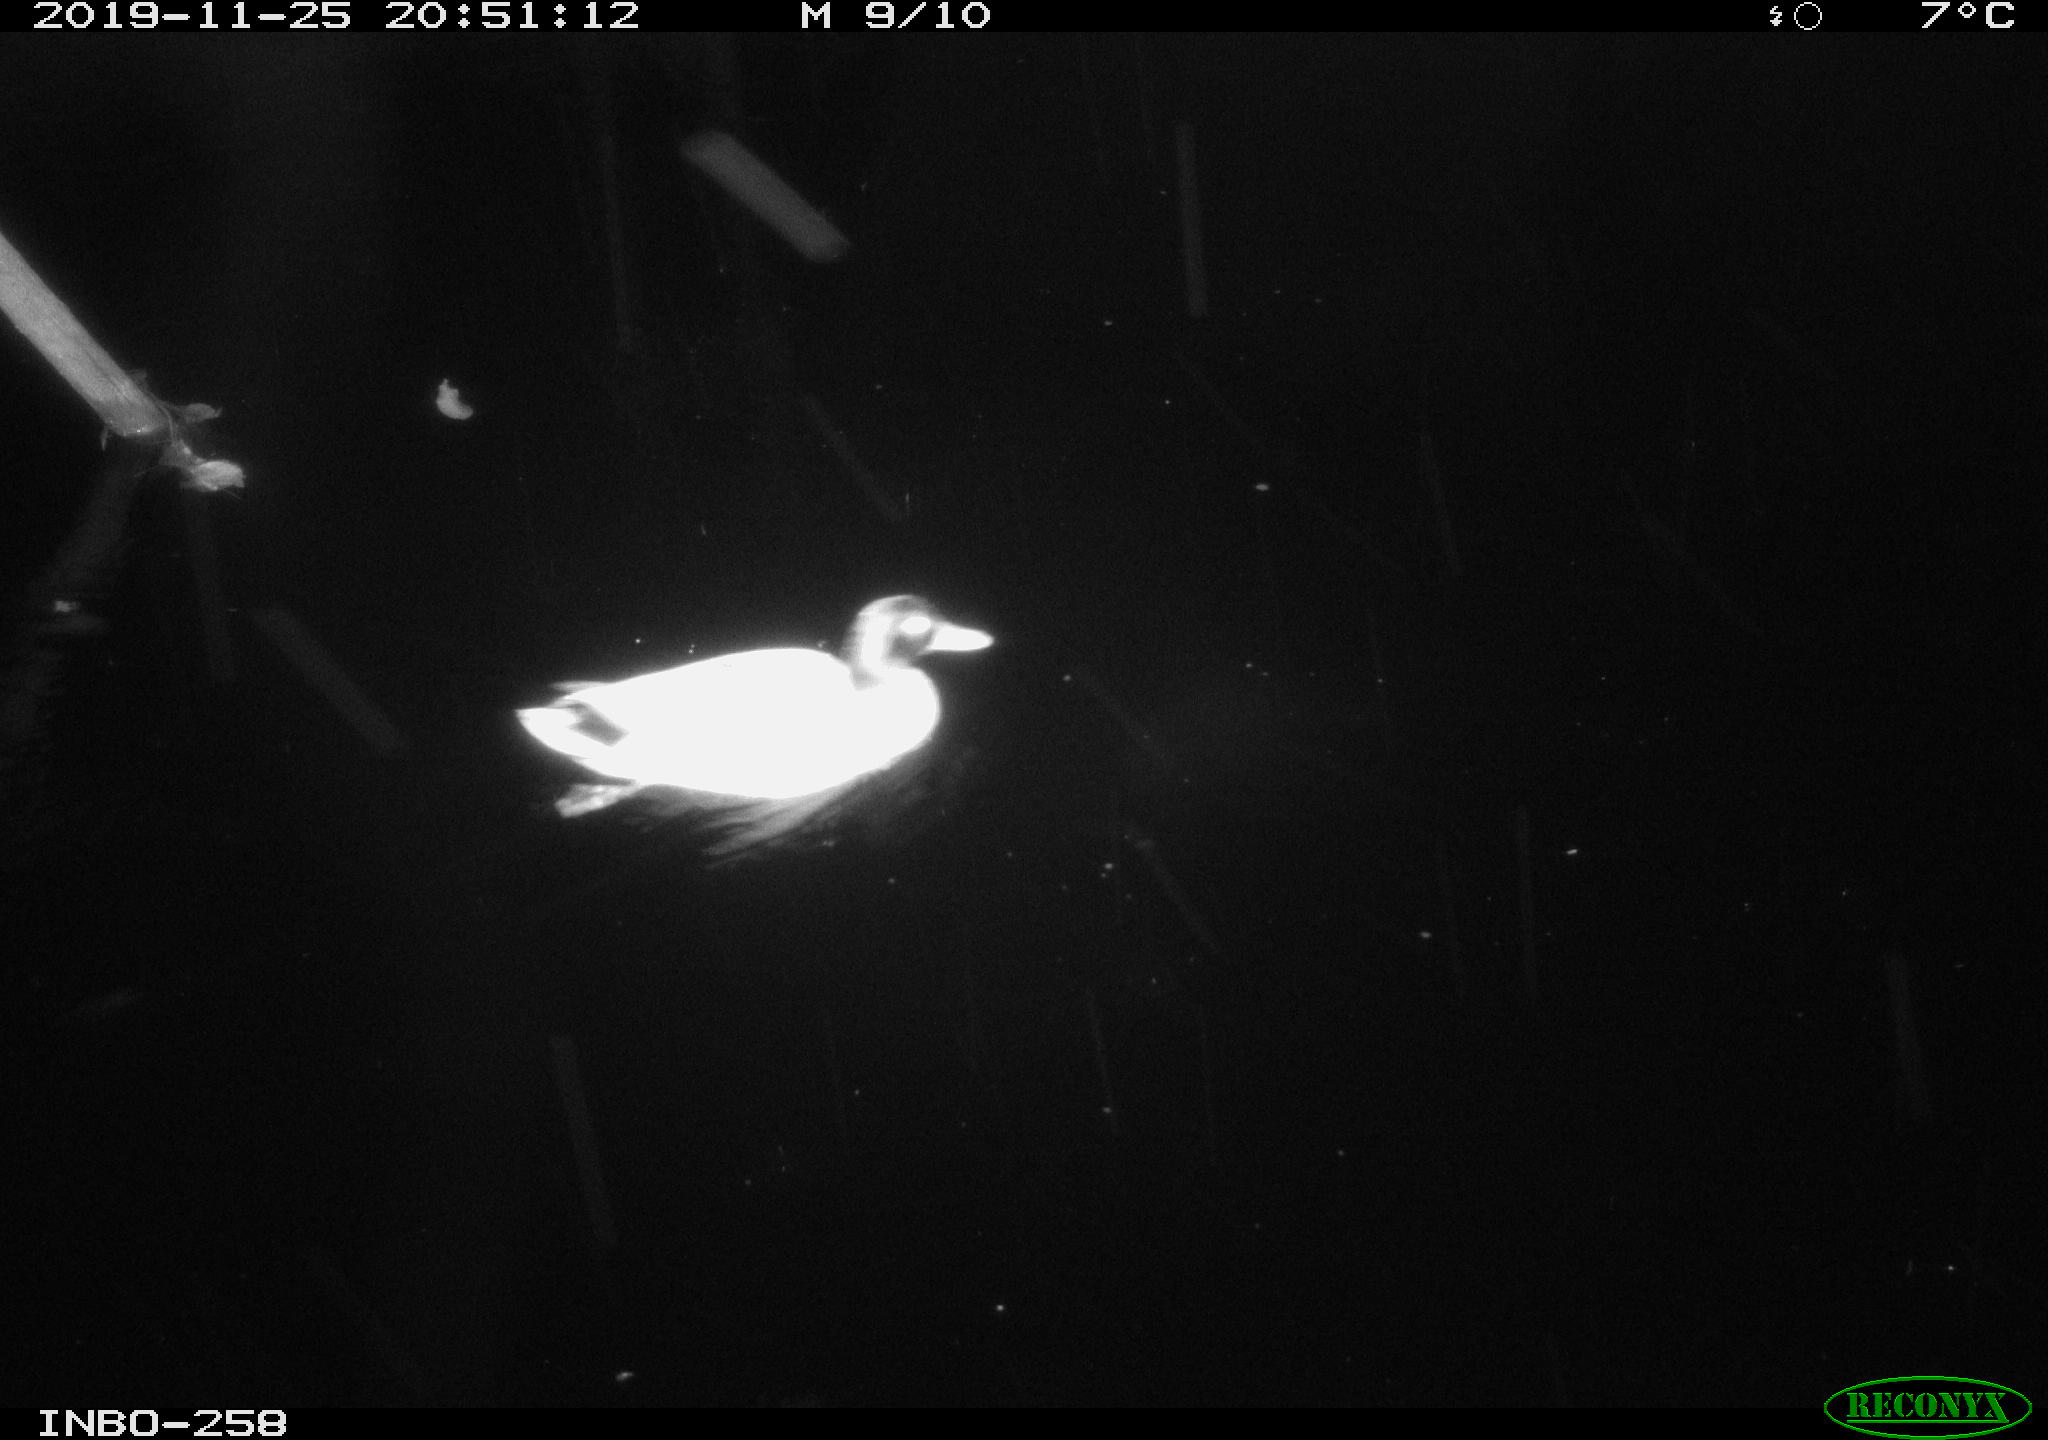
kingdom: Animalia
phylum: Chordata
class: Aves
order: Anseriformes
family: Anatidae
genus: Anas
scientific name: Anas platyrhynchos
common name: Mallard
